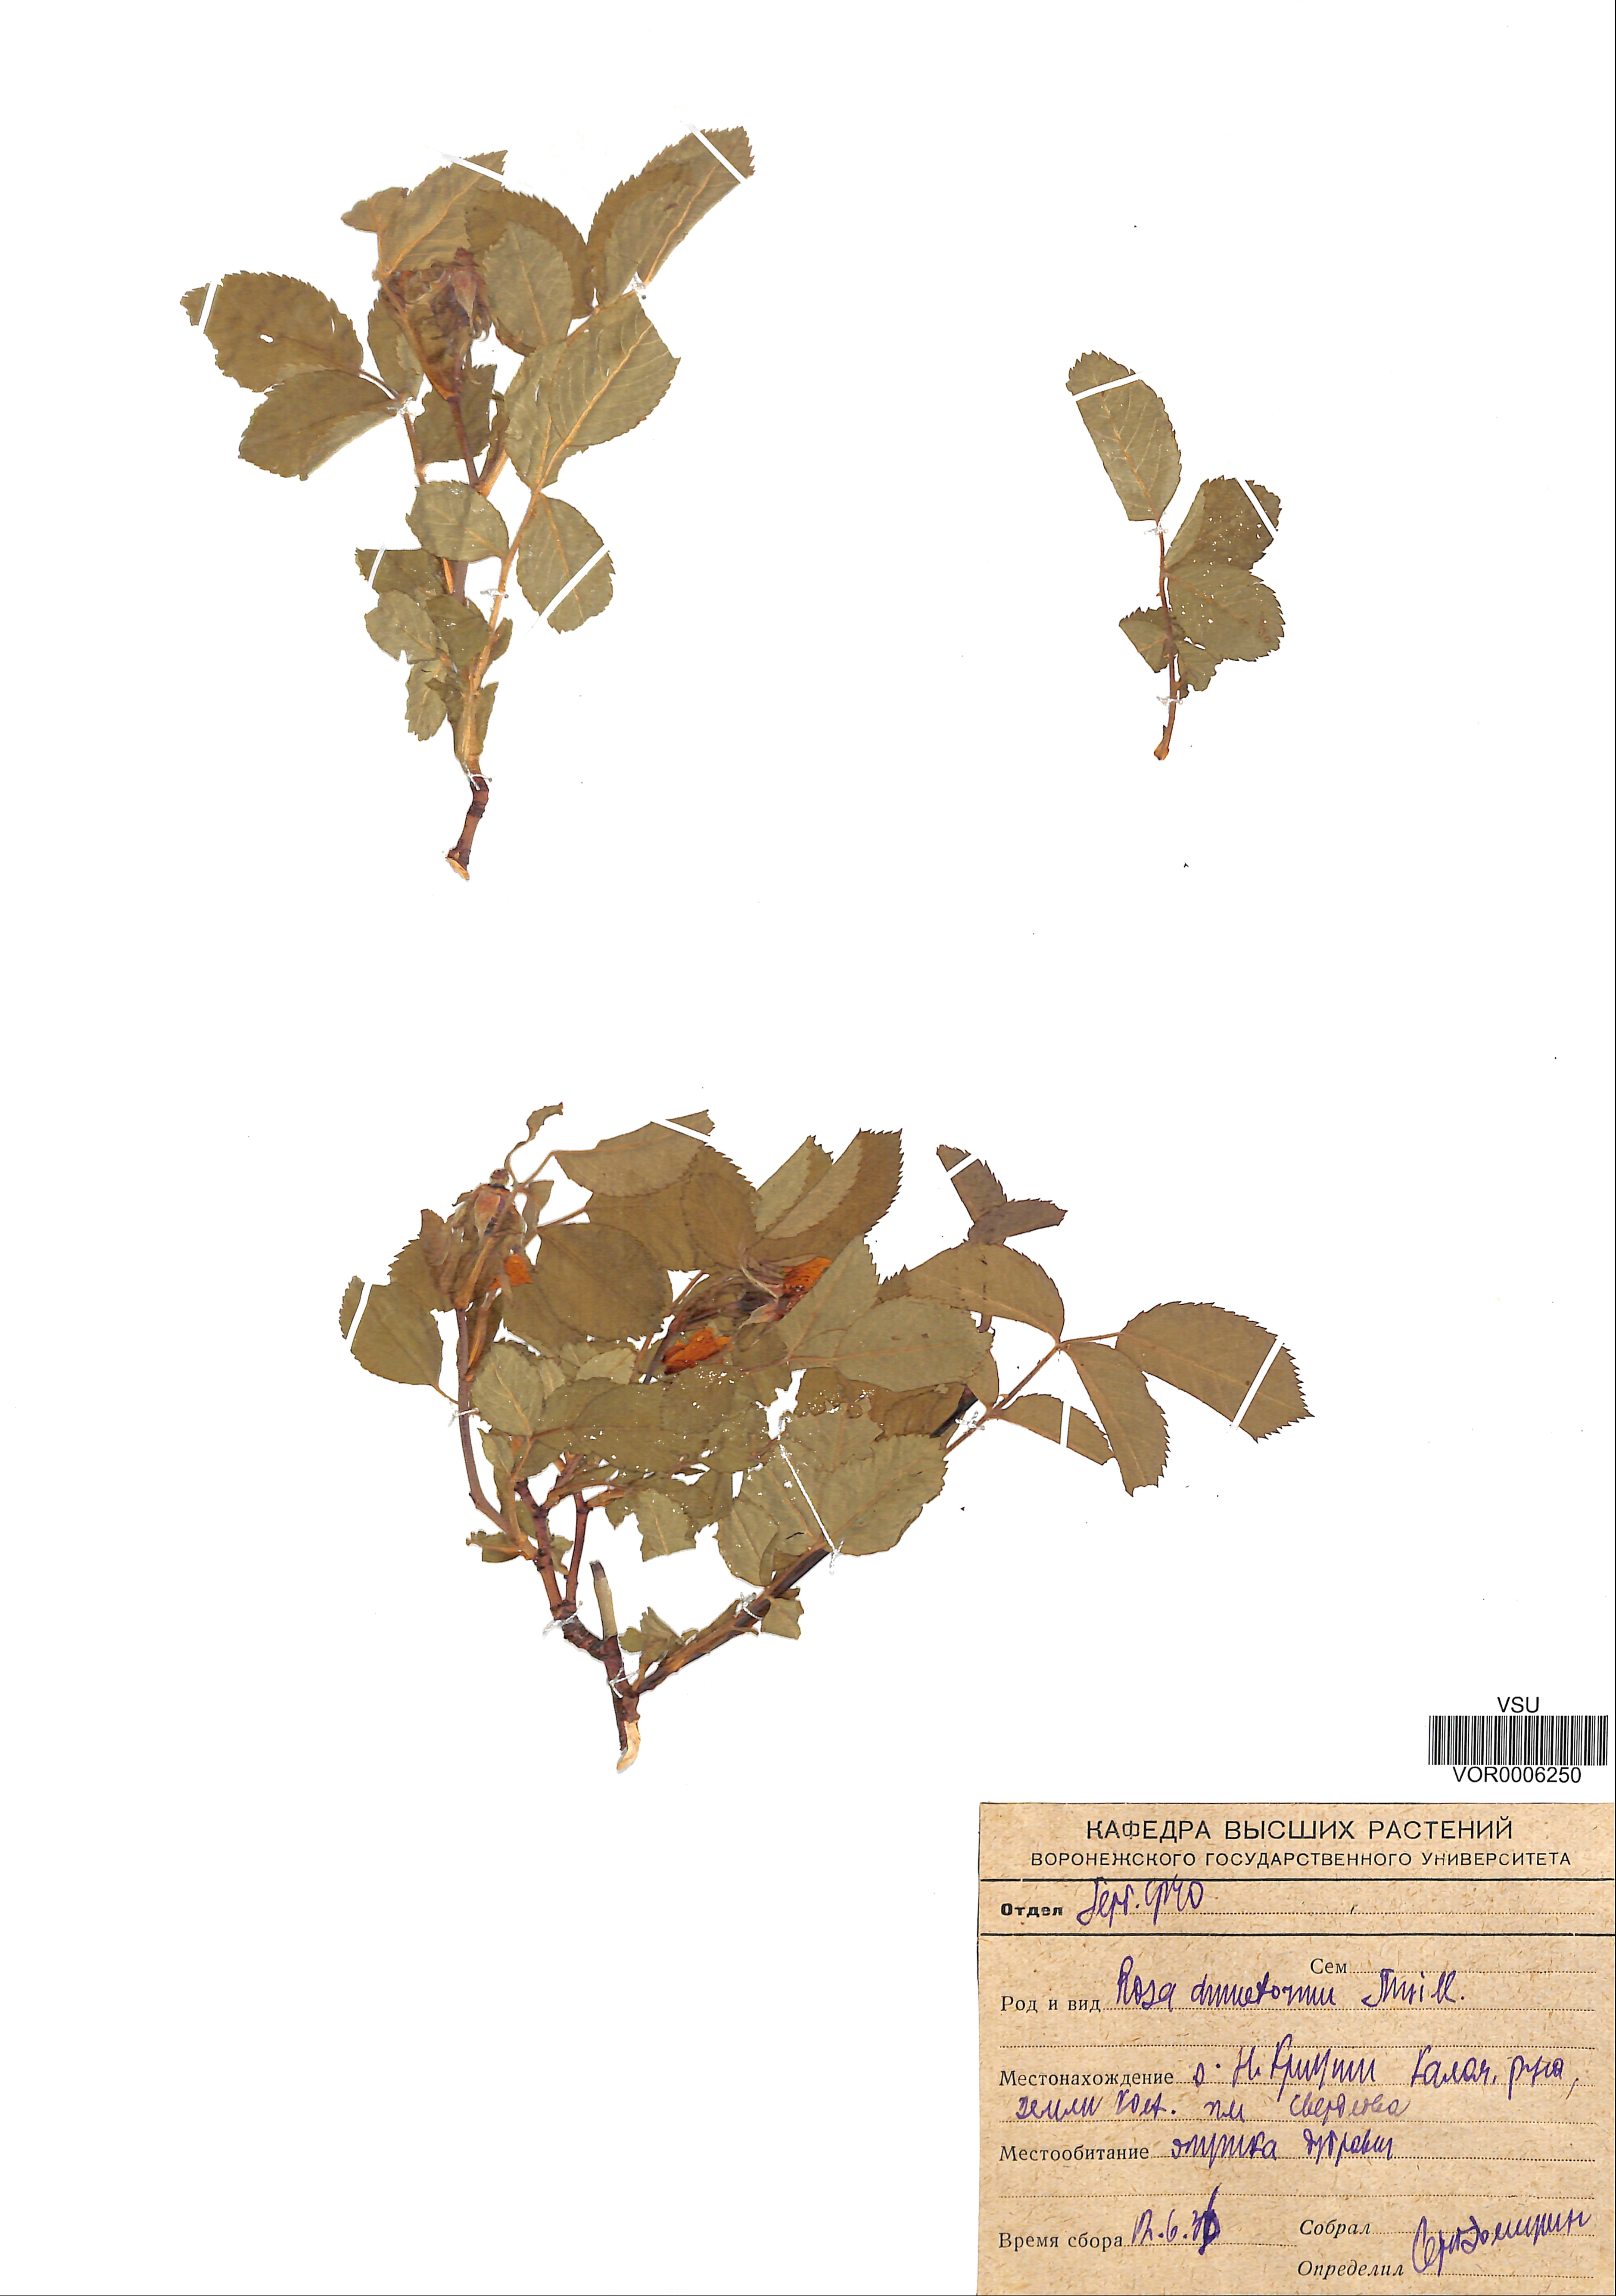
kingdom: Plantae
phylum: Tracheophyta
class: Magnoliopsida
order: Rosales
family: Rosaceae
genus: Rosa
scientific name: Rosa canina
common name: Dog rose
